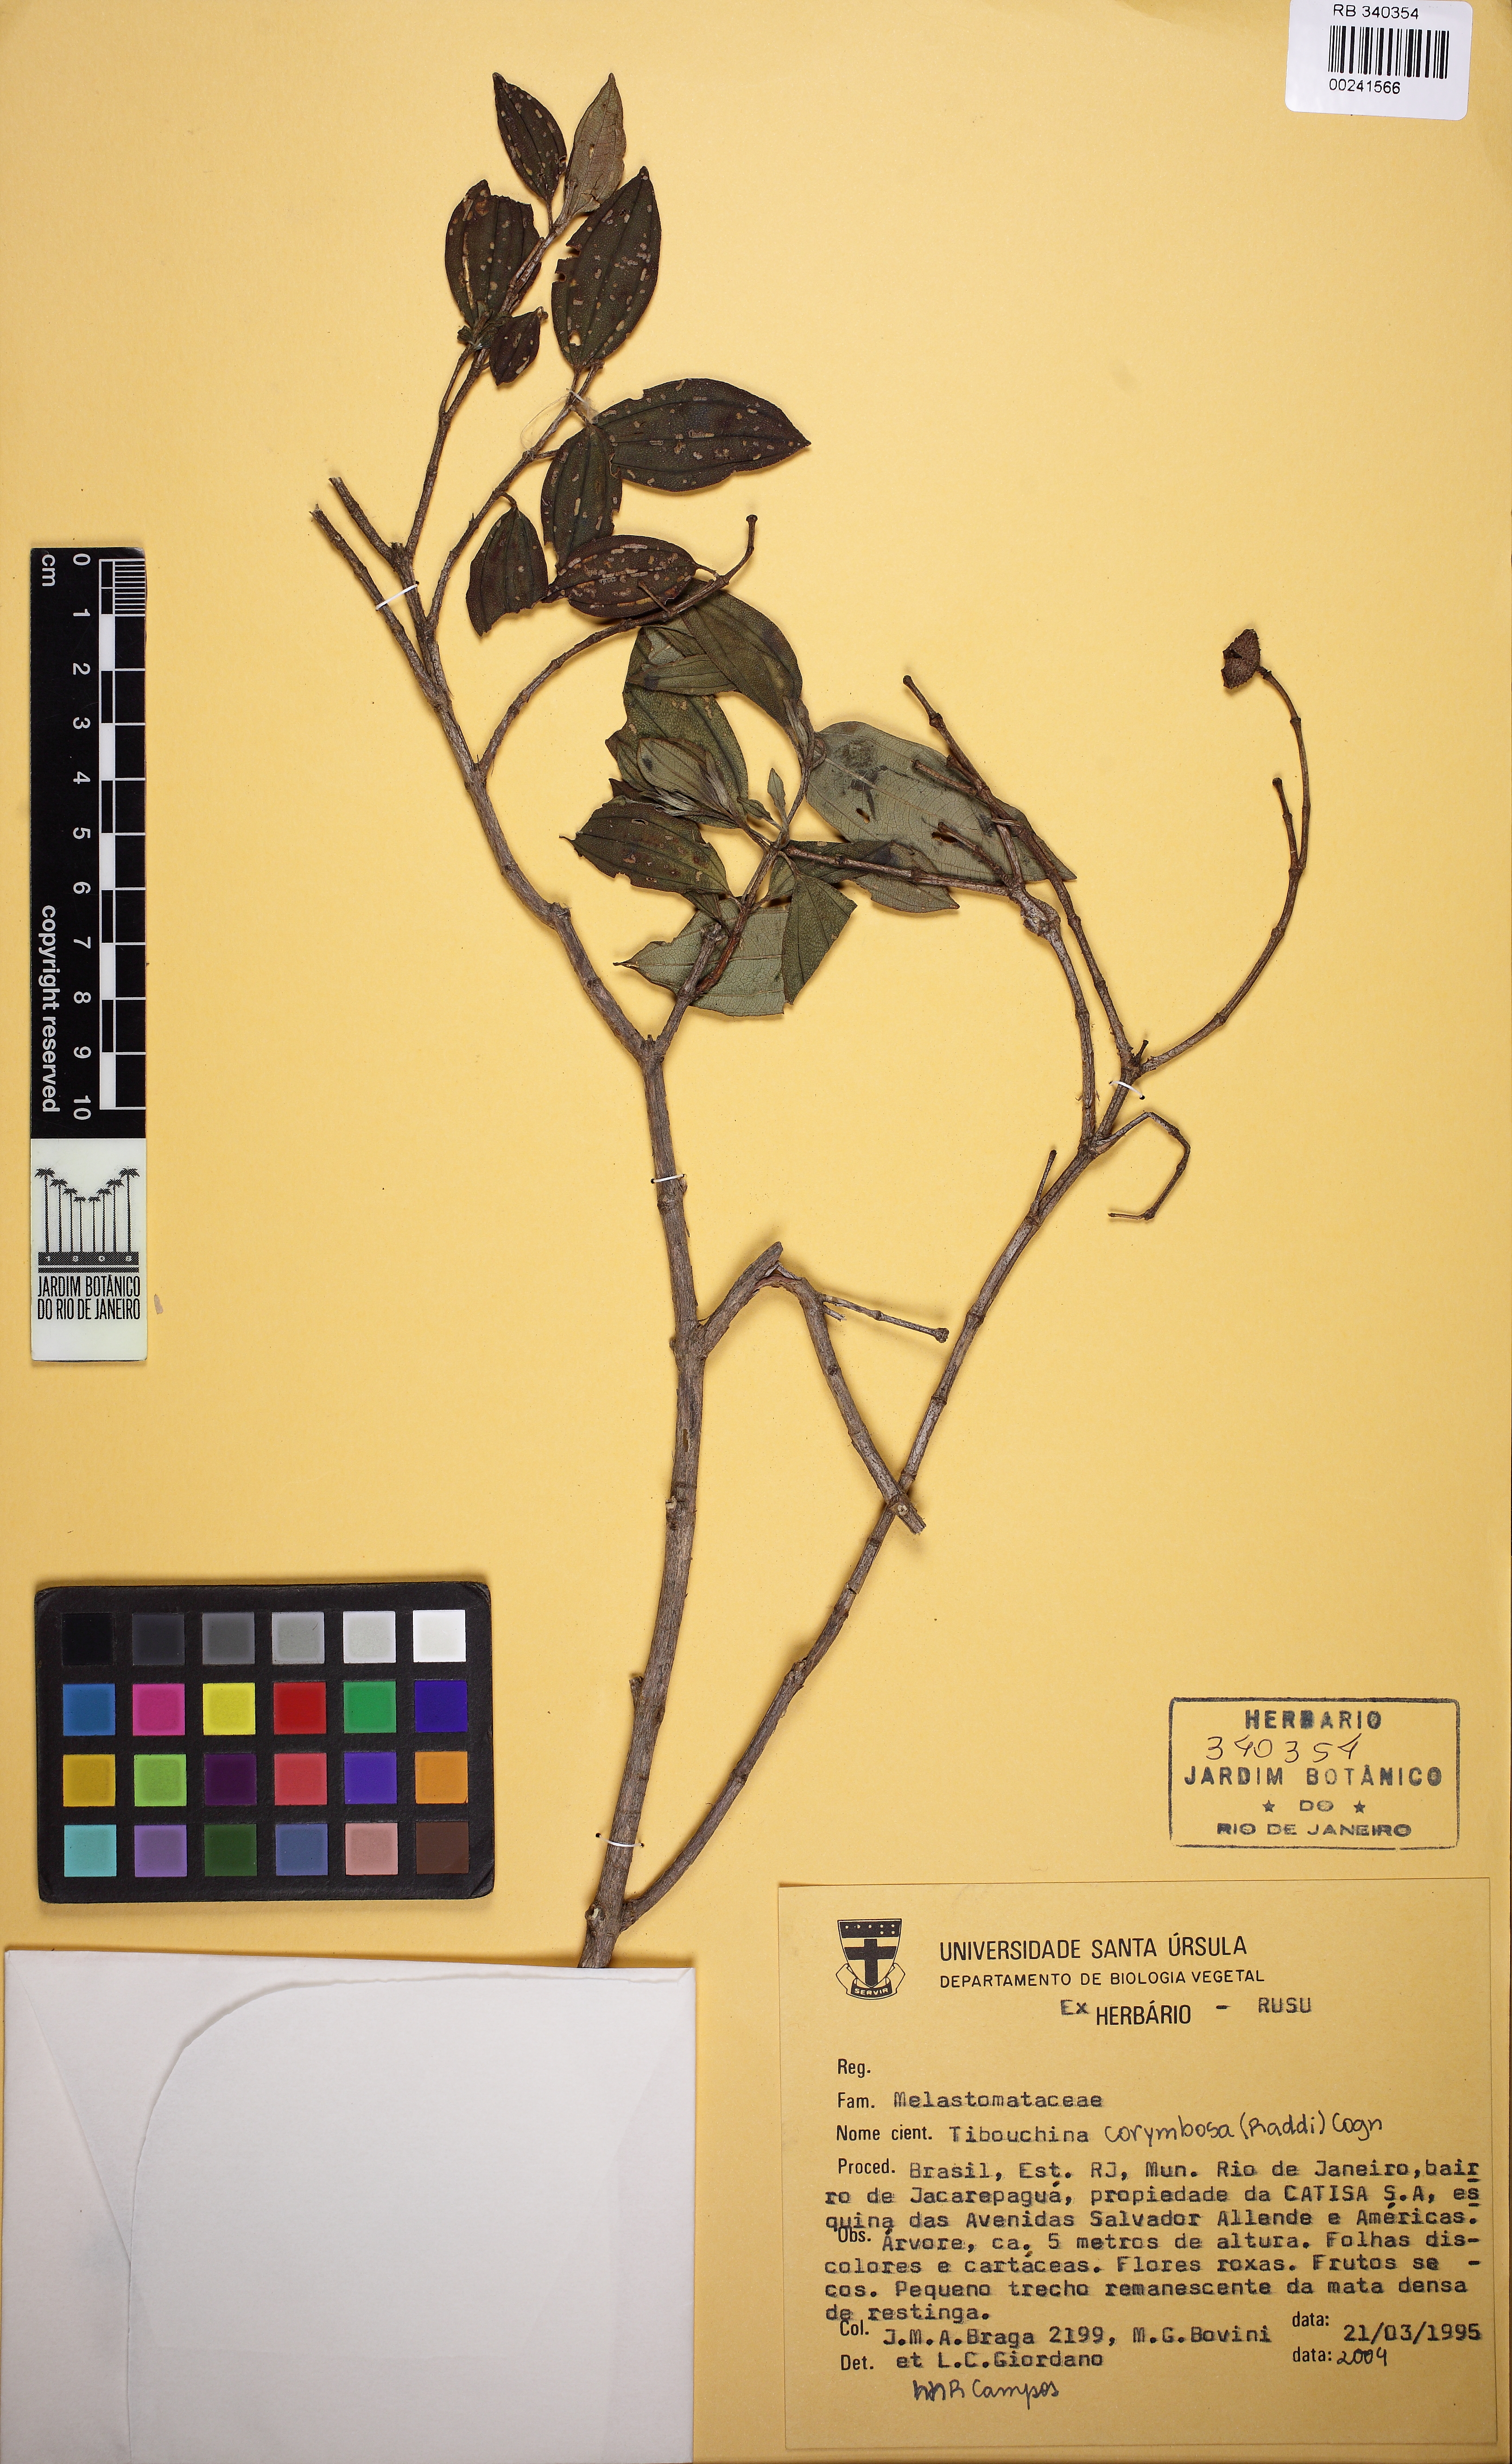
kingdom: Plantae
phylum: Tracheophyta
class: Magnoliopsida
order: Myrtales
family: Melastomataceae
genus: Pleroma
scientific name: Pleroma vimineum
